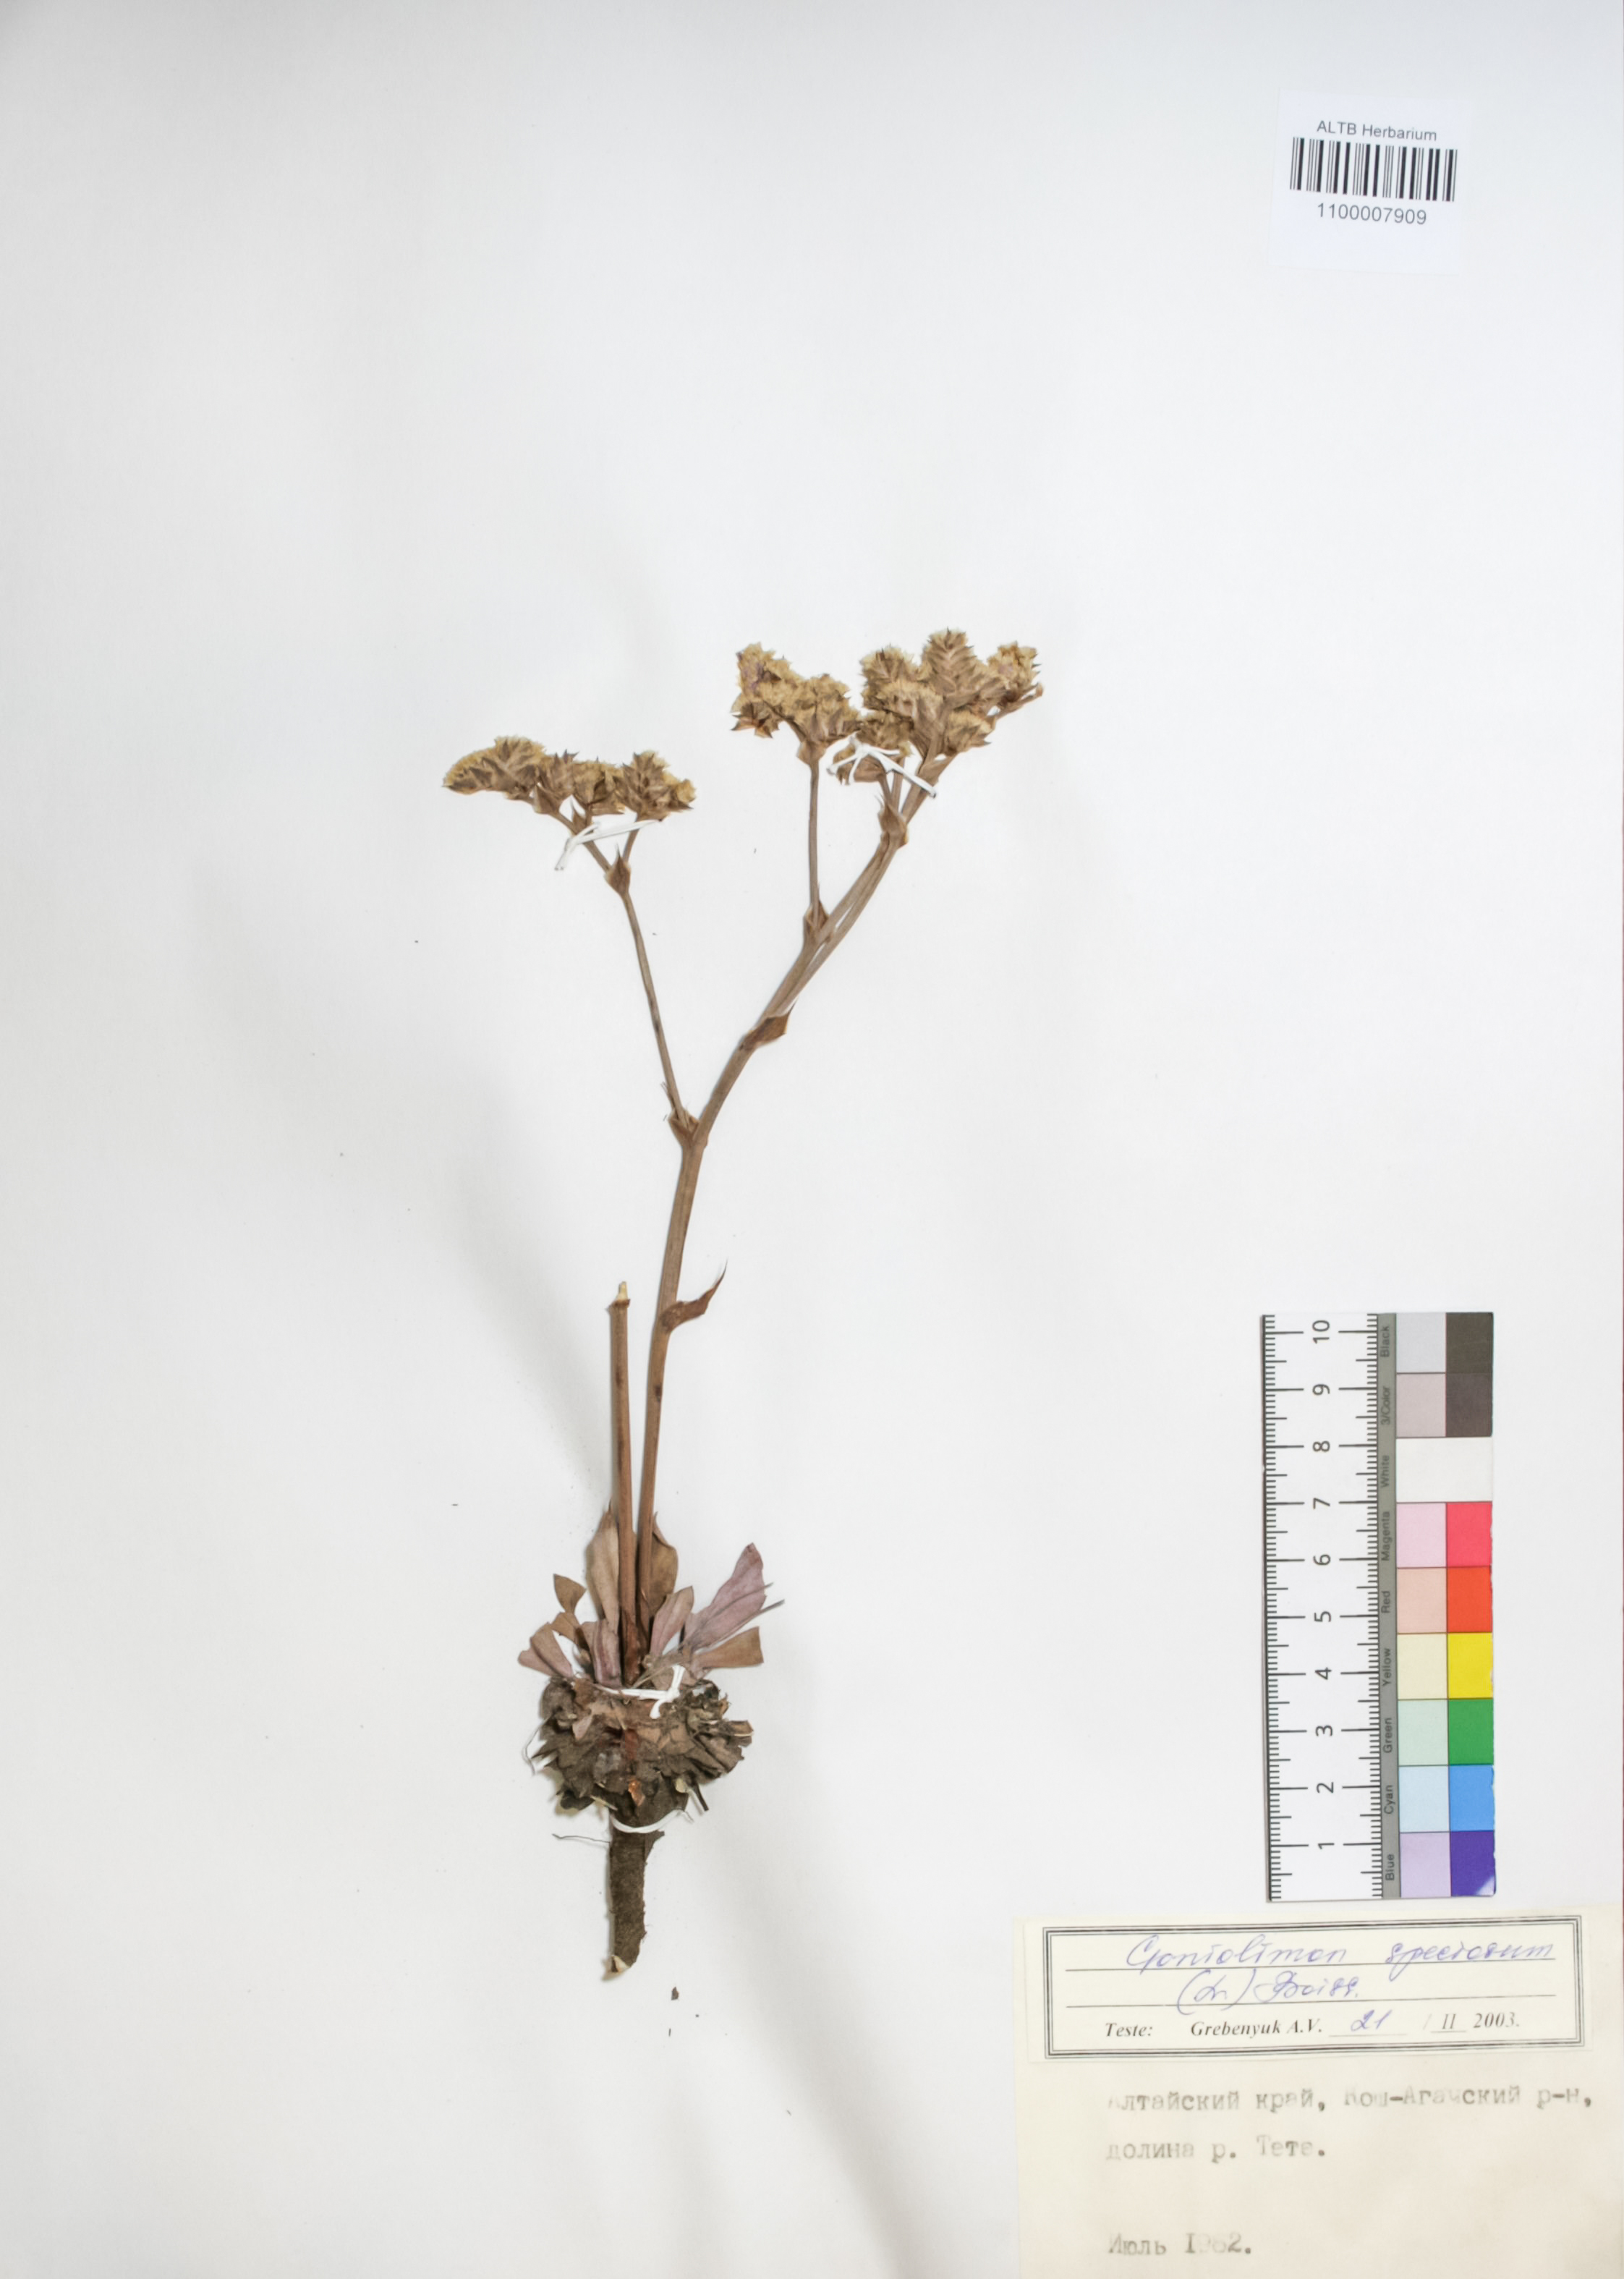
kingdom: Plantae
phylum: Tracheophyta
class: Magnoliopsida
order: Caryophyllales
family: Plumbaginaceae
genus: Goniolimon
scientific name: Goniolimon speciosum
